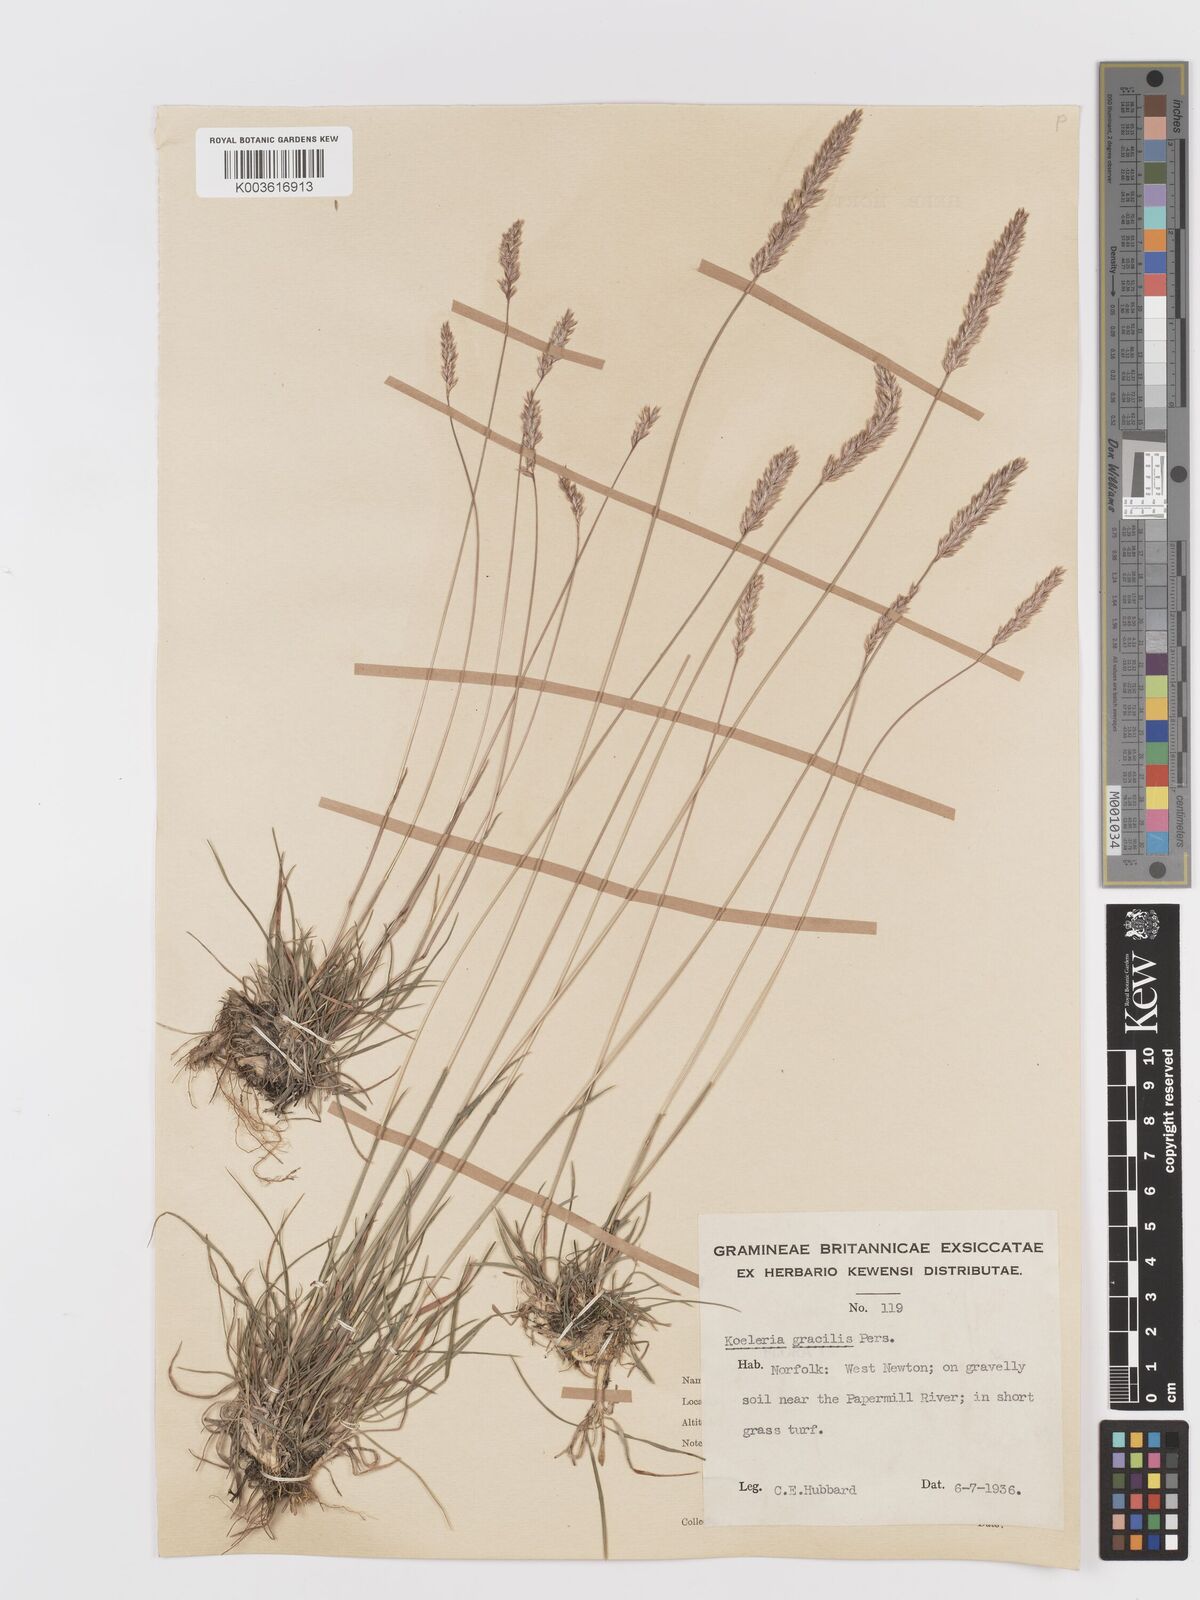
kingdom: Plantae
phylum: Tracheophyta
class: Liliopsida
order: Poales
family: Poaceae
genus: Koeleria
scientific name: Koeleria macrantha
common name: Crested hair-grass
